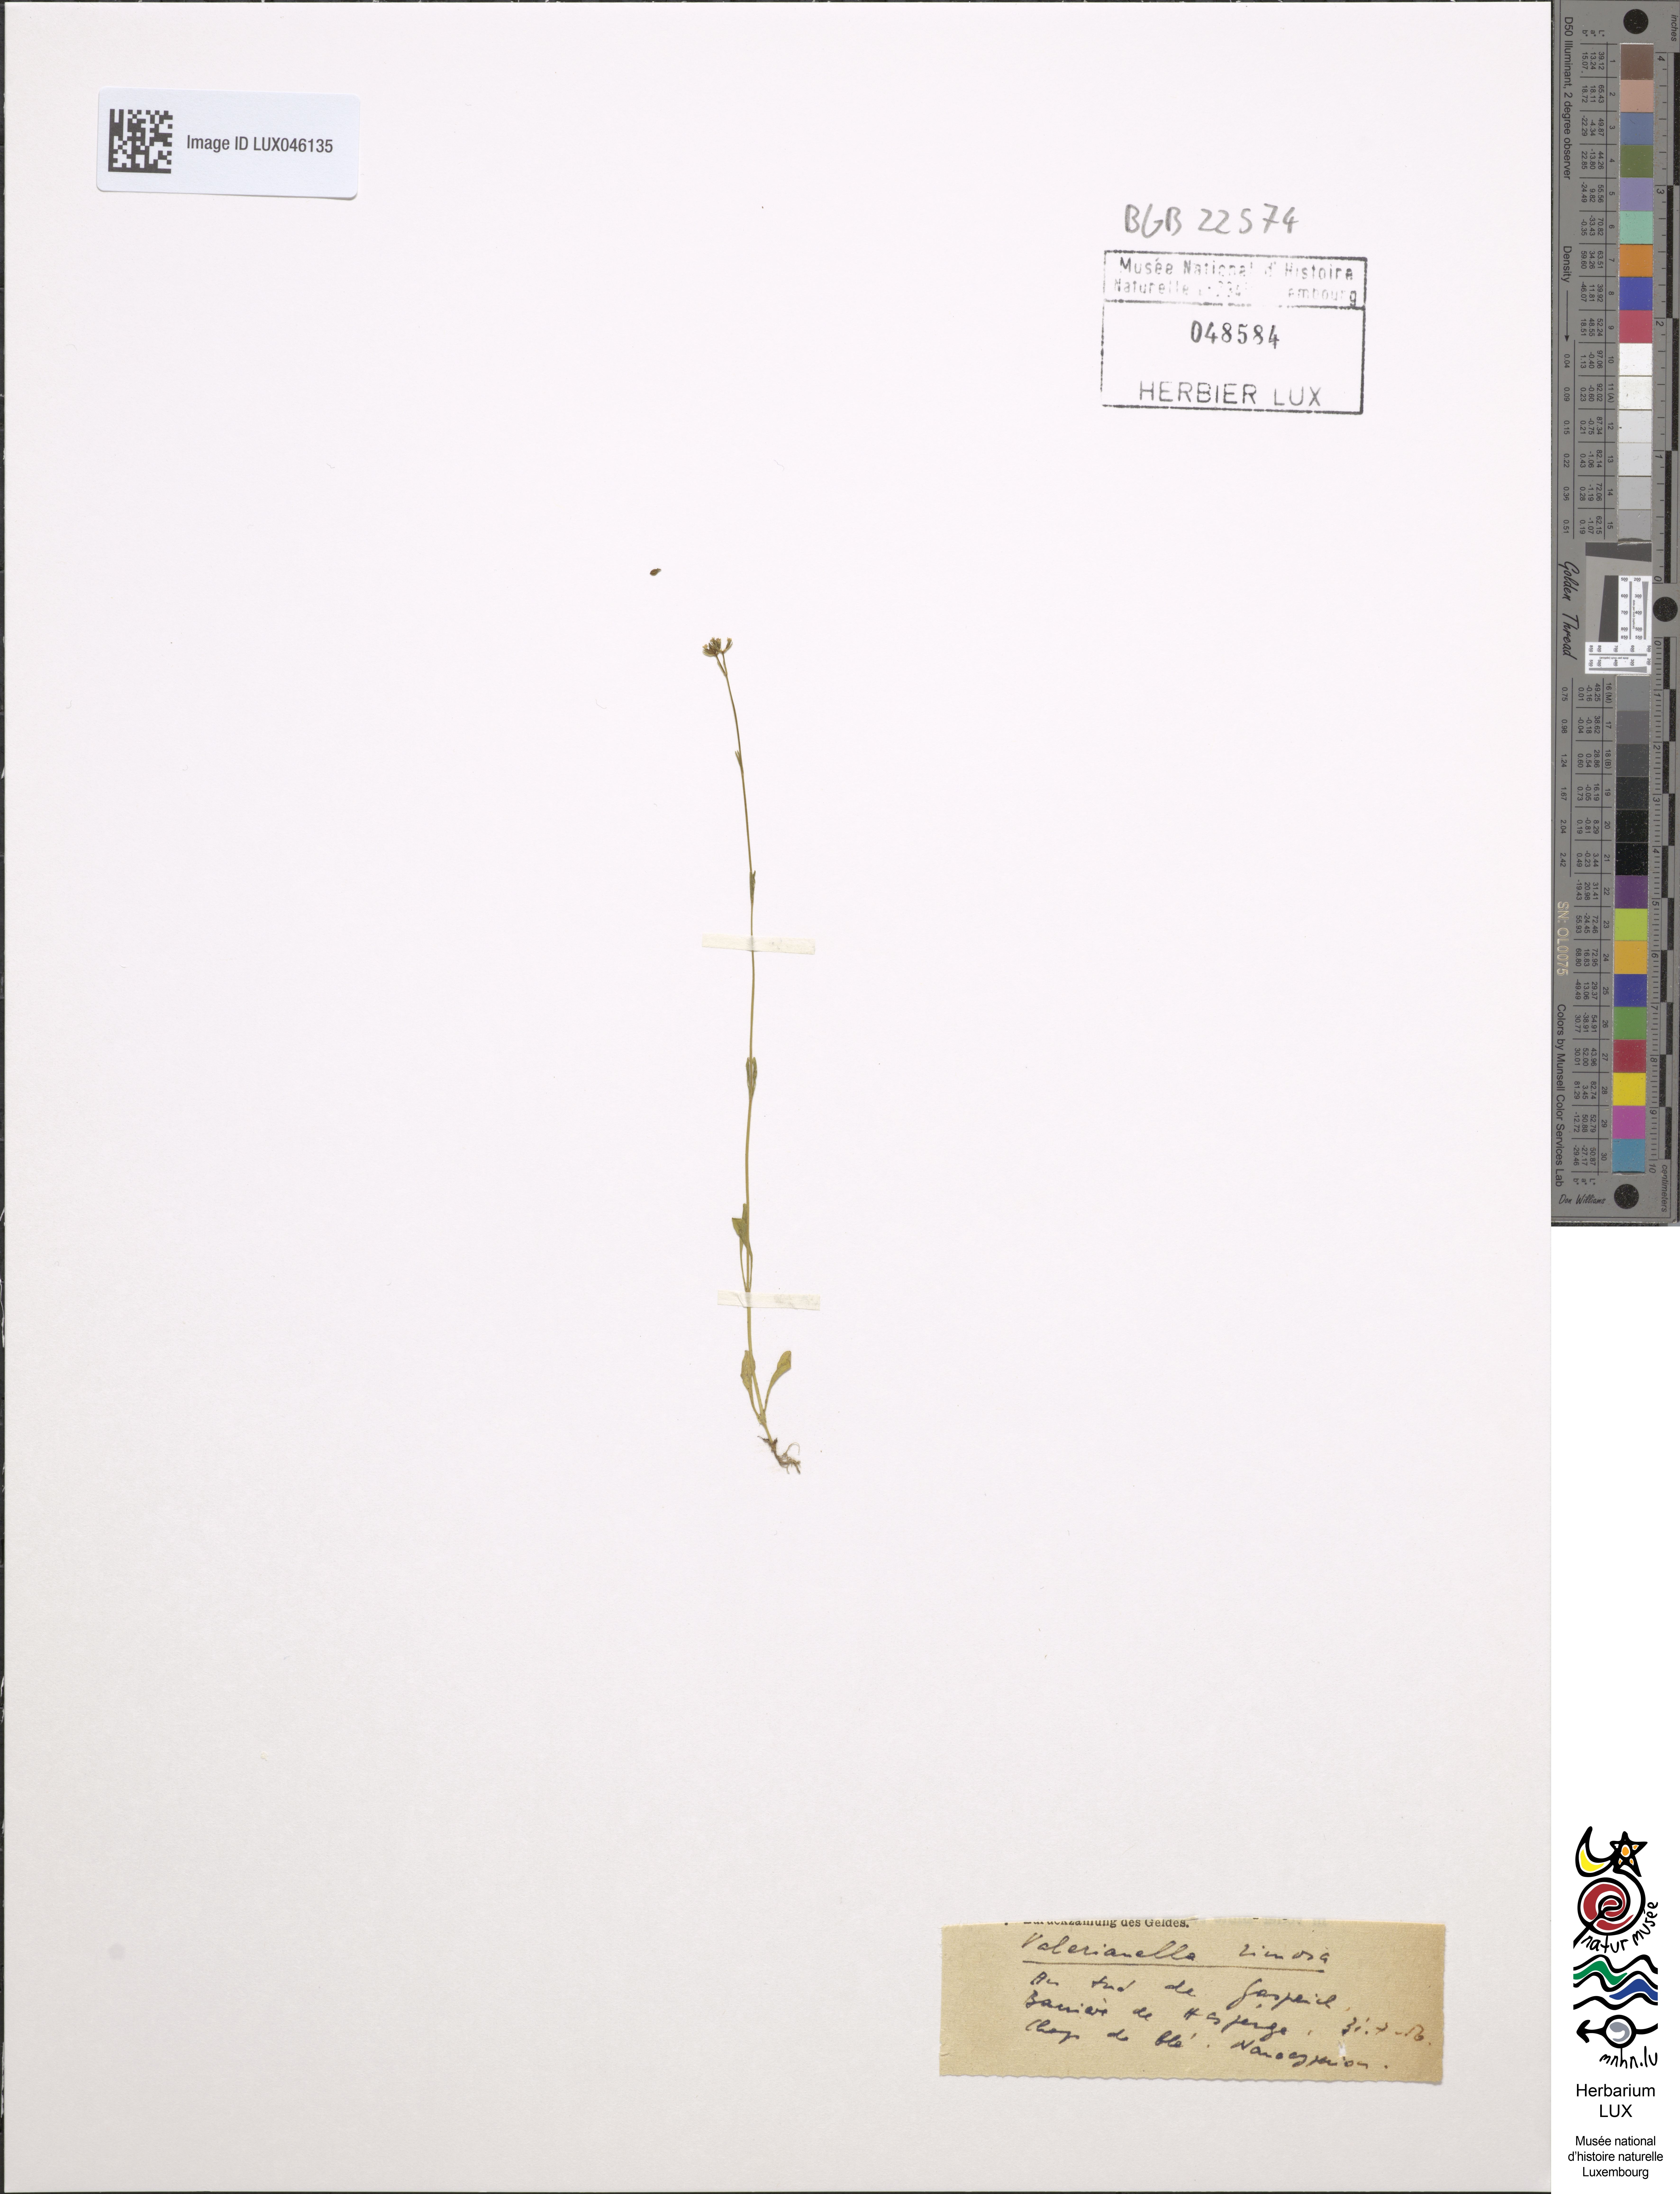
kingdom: Plantae
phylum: Tracheophyta
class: Magnoliopsida
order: Dipsacales
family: Caprifoliaceae
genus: Valerianella
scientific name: Valerianella rimosa
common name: Broad-fruited cornsalad
